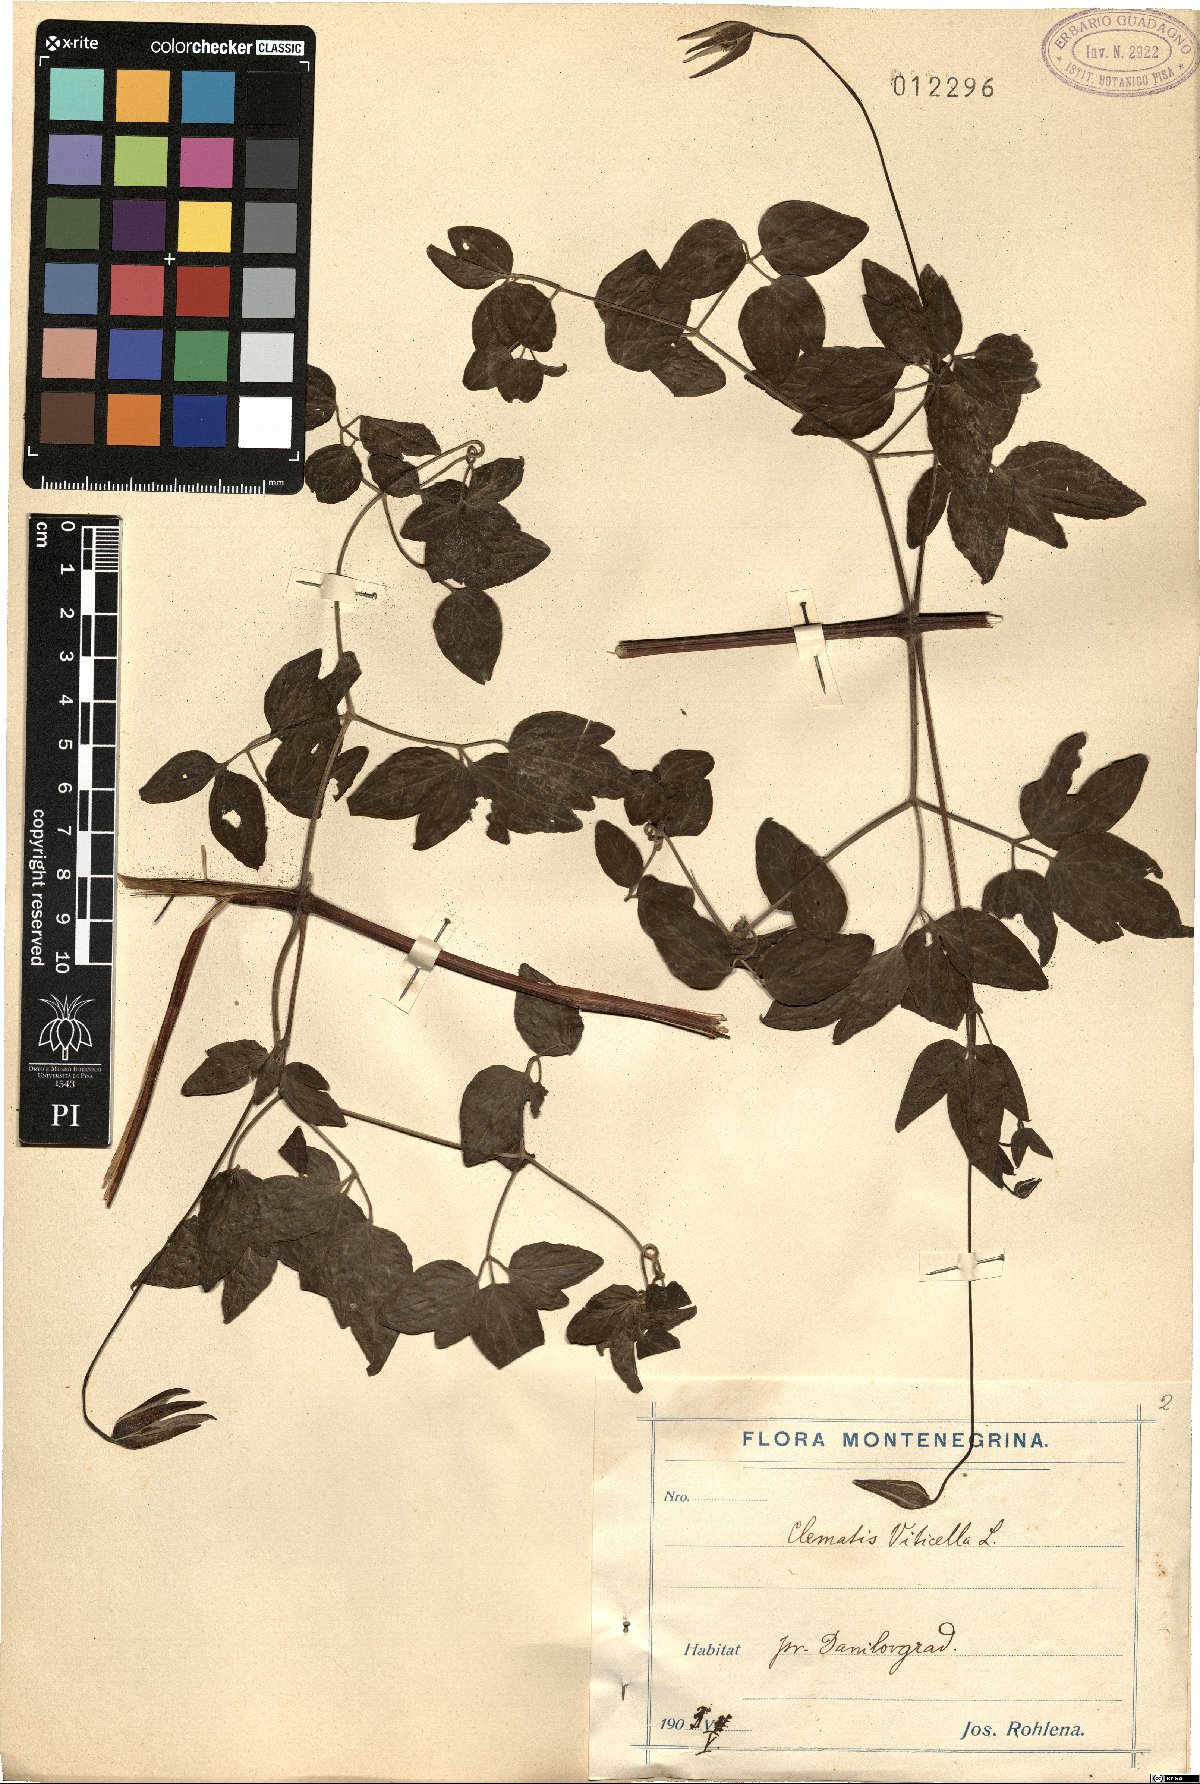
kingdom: Plantae
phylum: Tracheophyta
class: Magnoliopsida
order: Ranunculales
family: Ranunculaceae
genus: Clematis
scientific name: Clematis viticella
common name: Purple clematis
